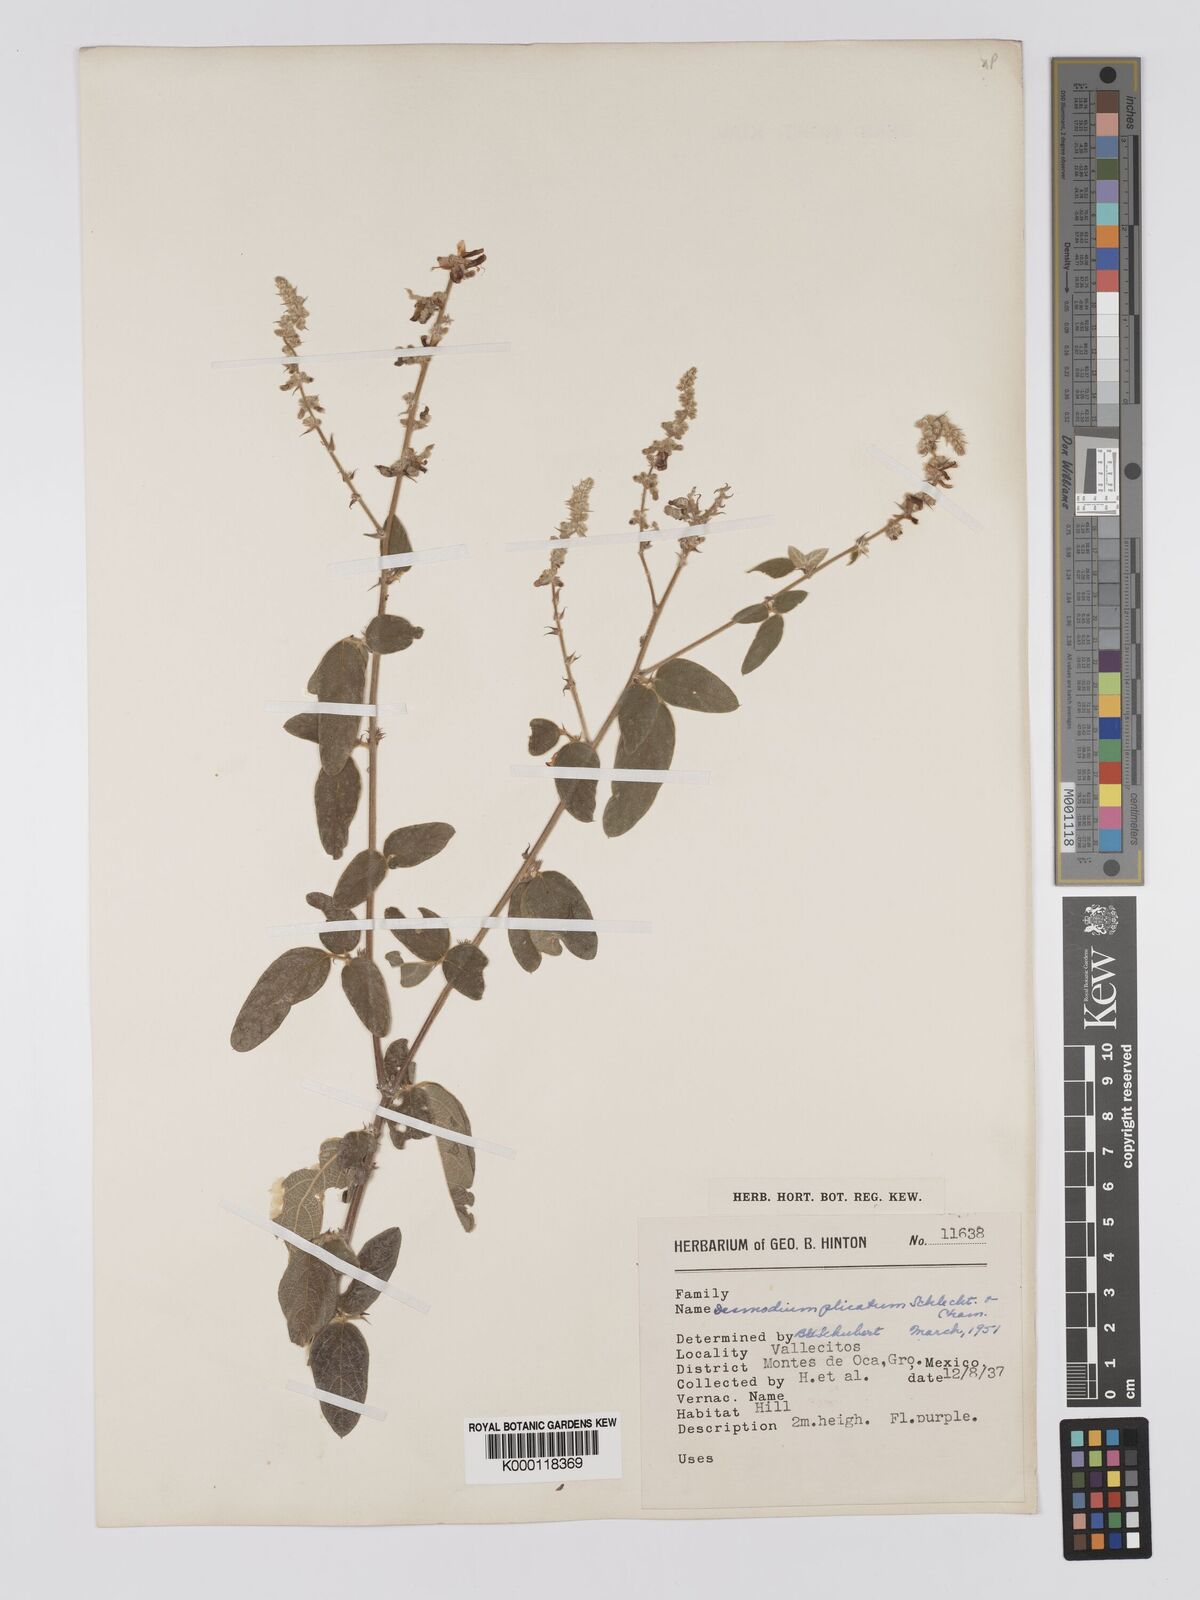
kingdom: Plantae
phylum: Tracheophyta
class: Magnoliopsida
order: Fabales
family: Fabaceae
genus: Desmodium
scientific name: Desmodium plicatum
